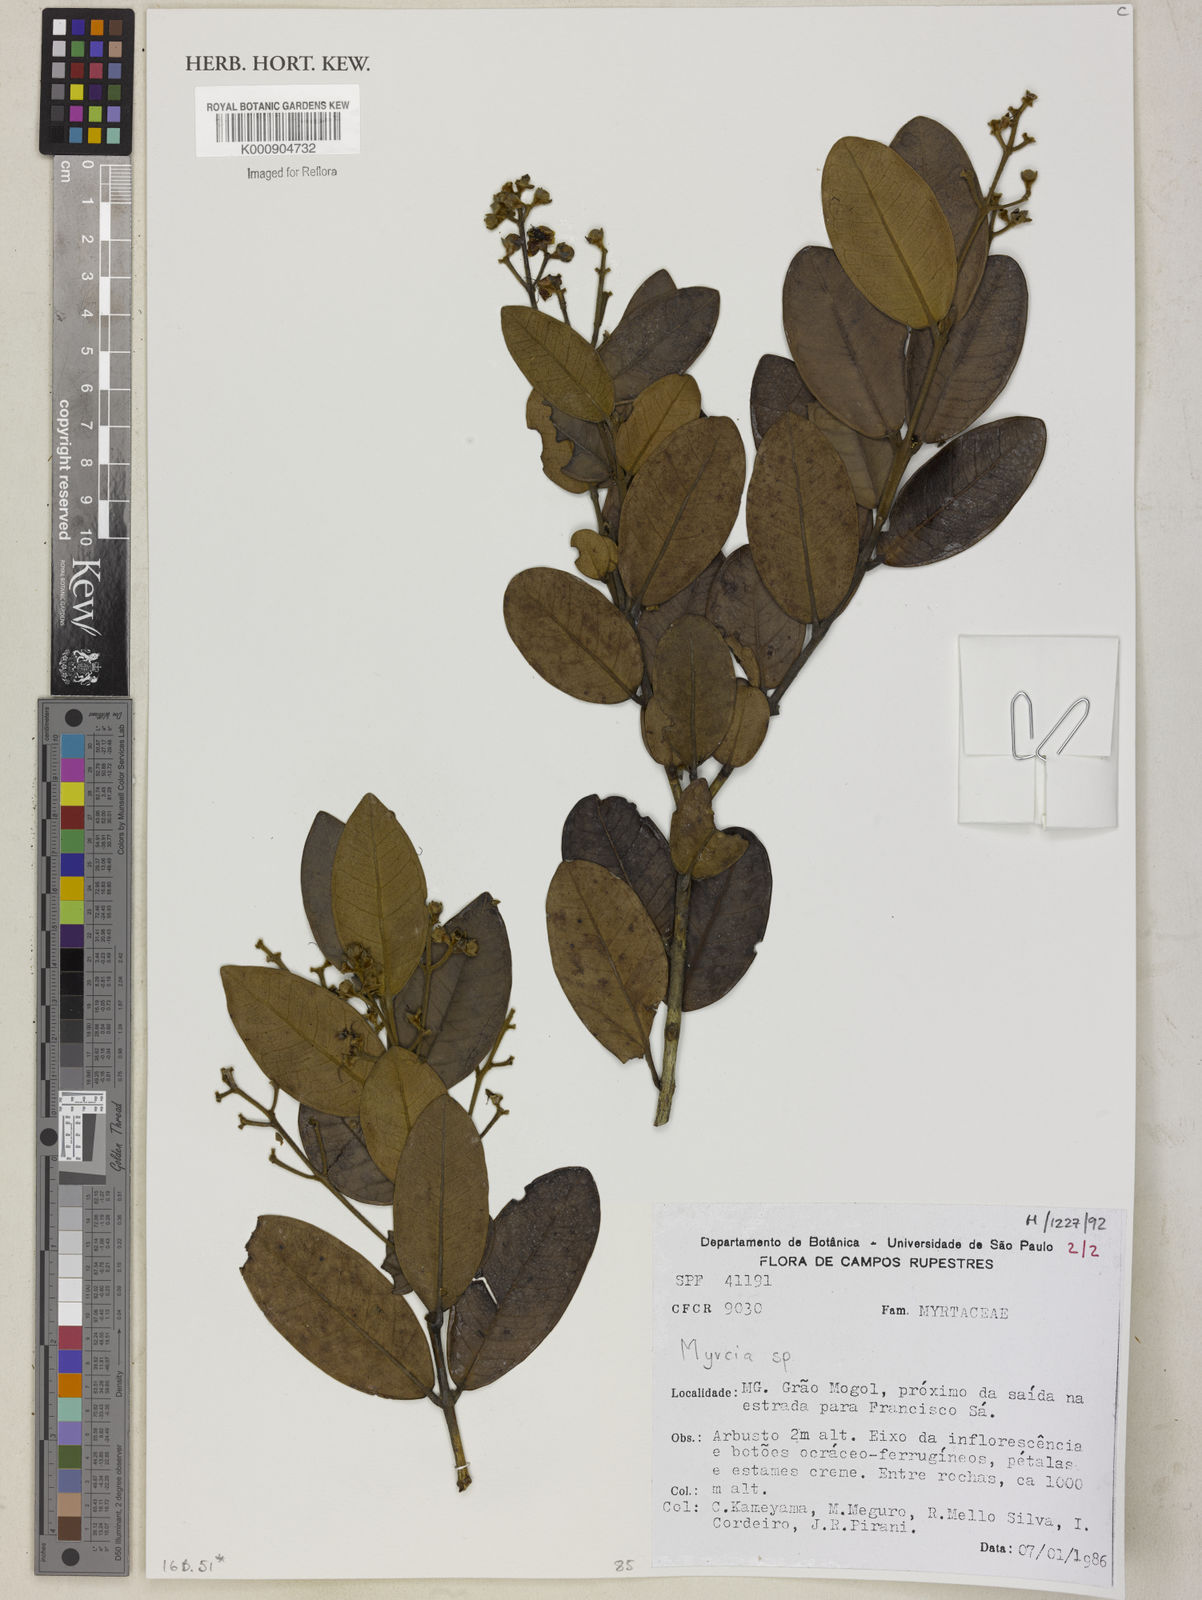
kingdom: Plantae
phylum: Tracheophyta
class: Magnoliopsida
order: Myrtales
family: Myrtaceae
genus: Myrcia
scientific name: Myrcia
